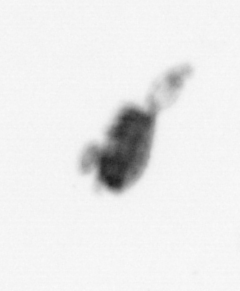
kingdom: Animalia
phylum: Arthropoda
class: Copepoda
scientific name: Copepoda
